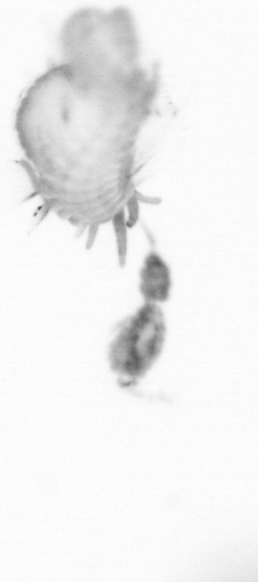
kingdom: Animalia
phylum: Arthropoda
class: Copepoda
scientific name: Copepoda
